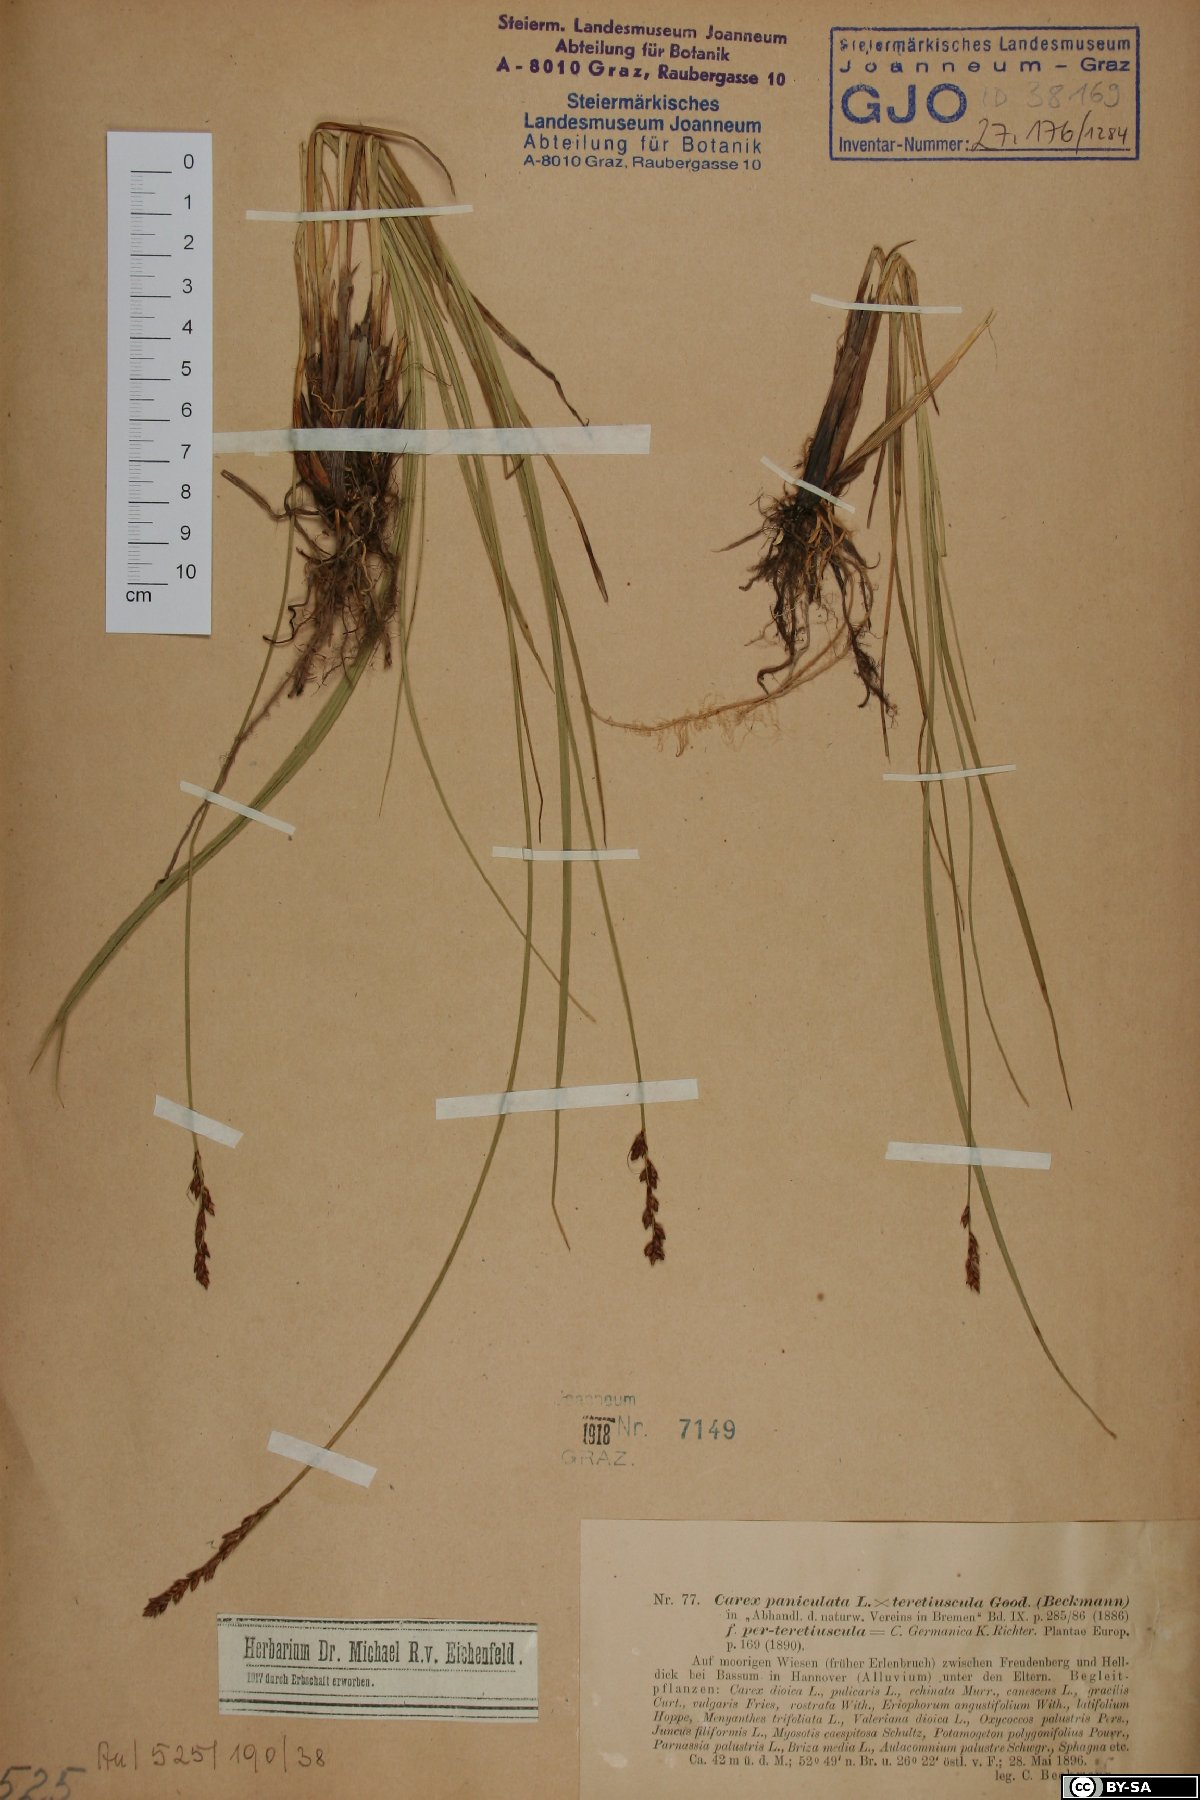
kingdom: Plantae
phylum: Tracheophyta
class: Liliopsida
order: Poales
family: Cyperaceae
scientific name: Cyperaceae
